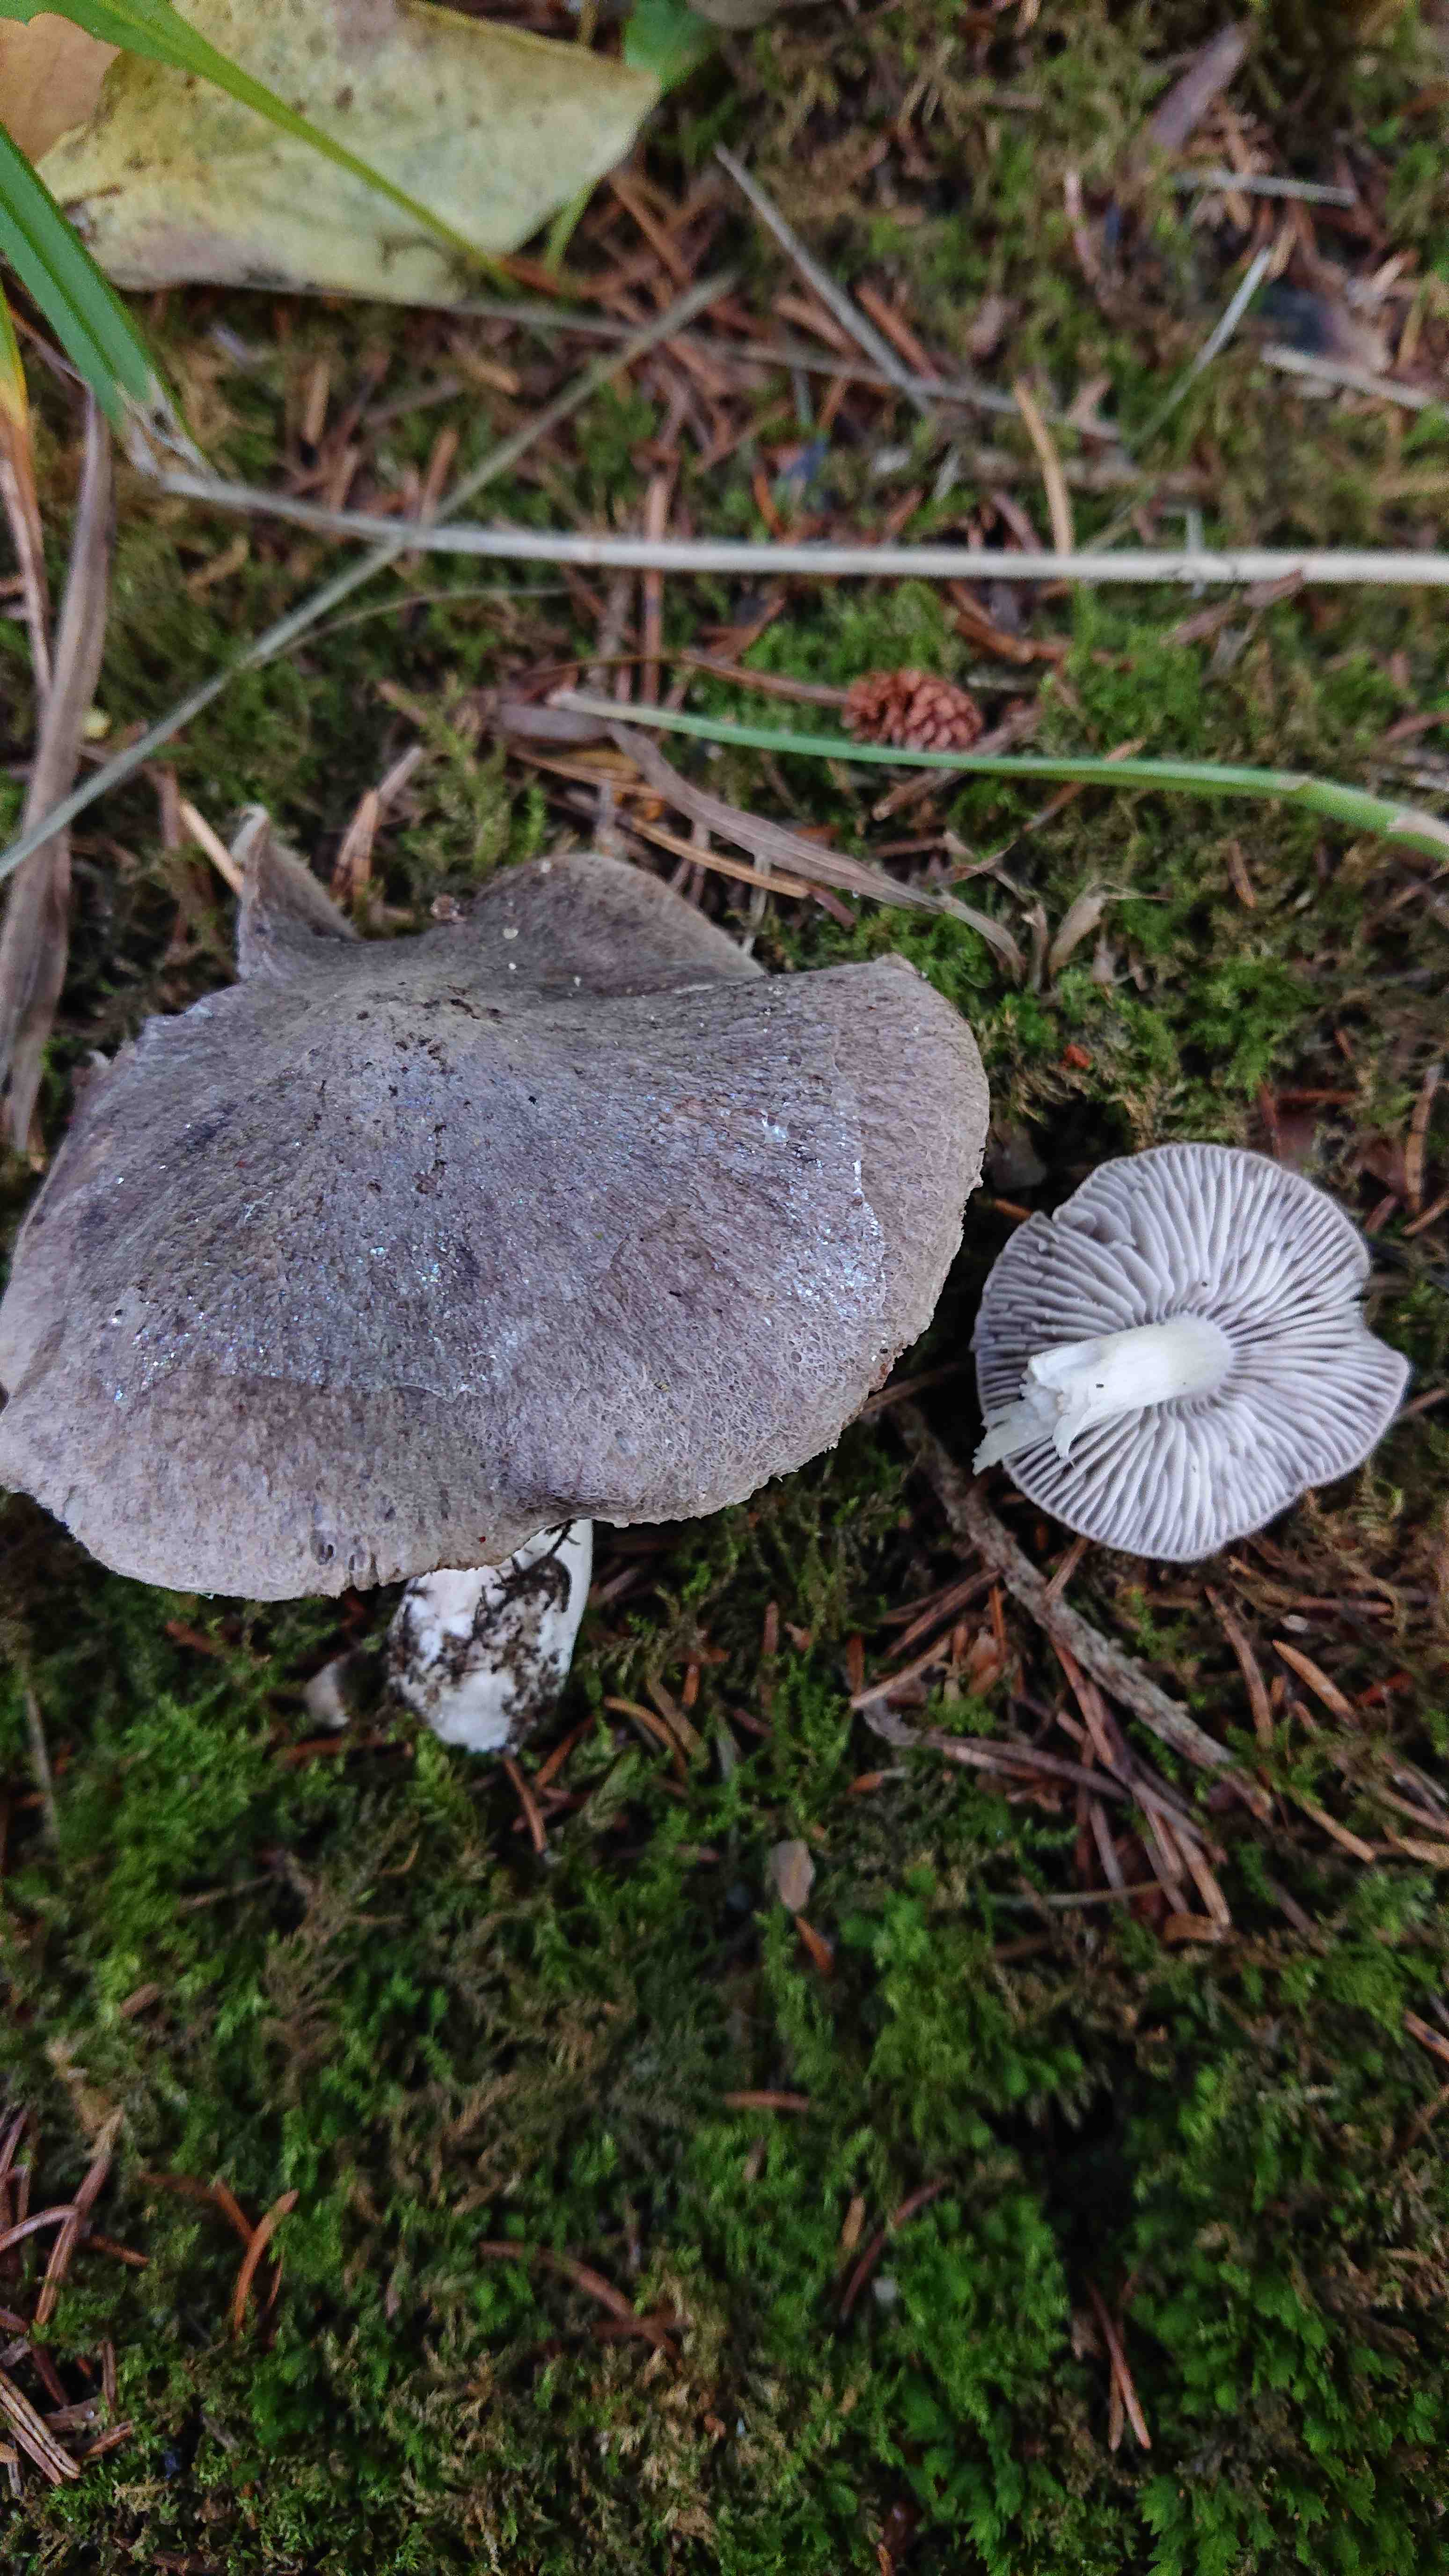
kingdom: Fungi
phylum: Basidiomycota
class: Agaricomycetes
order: Agaricales
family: Tricholomataceae
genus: Tricholoma
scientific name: Tricholoma terreum
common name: jordfarvet ridderhat
